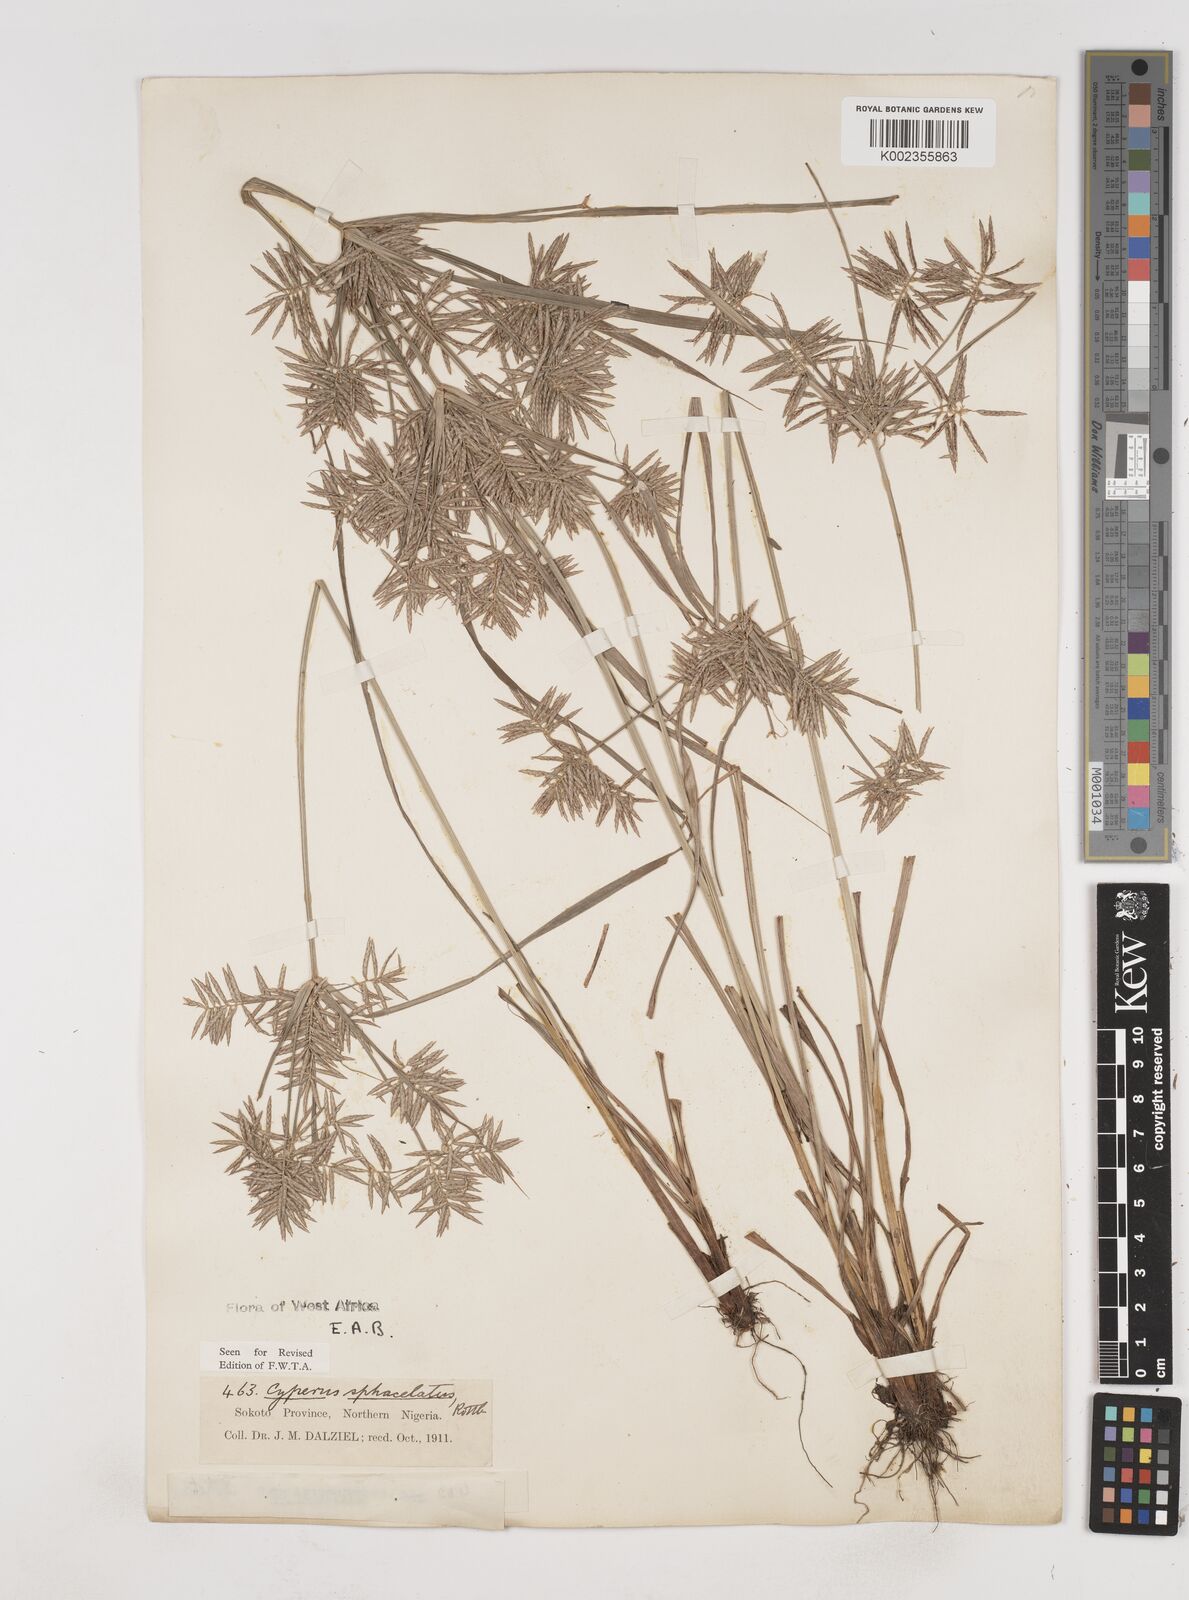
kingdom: Plantae
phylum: Tracheophyta
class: Liliopsida
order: Poales
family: Cyperaceae
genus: Cyperus
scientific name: Cyperus sphacelatus
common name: Roadside flatsedge
